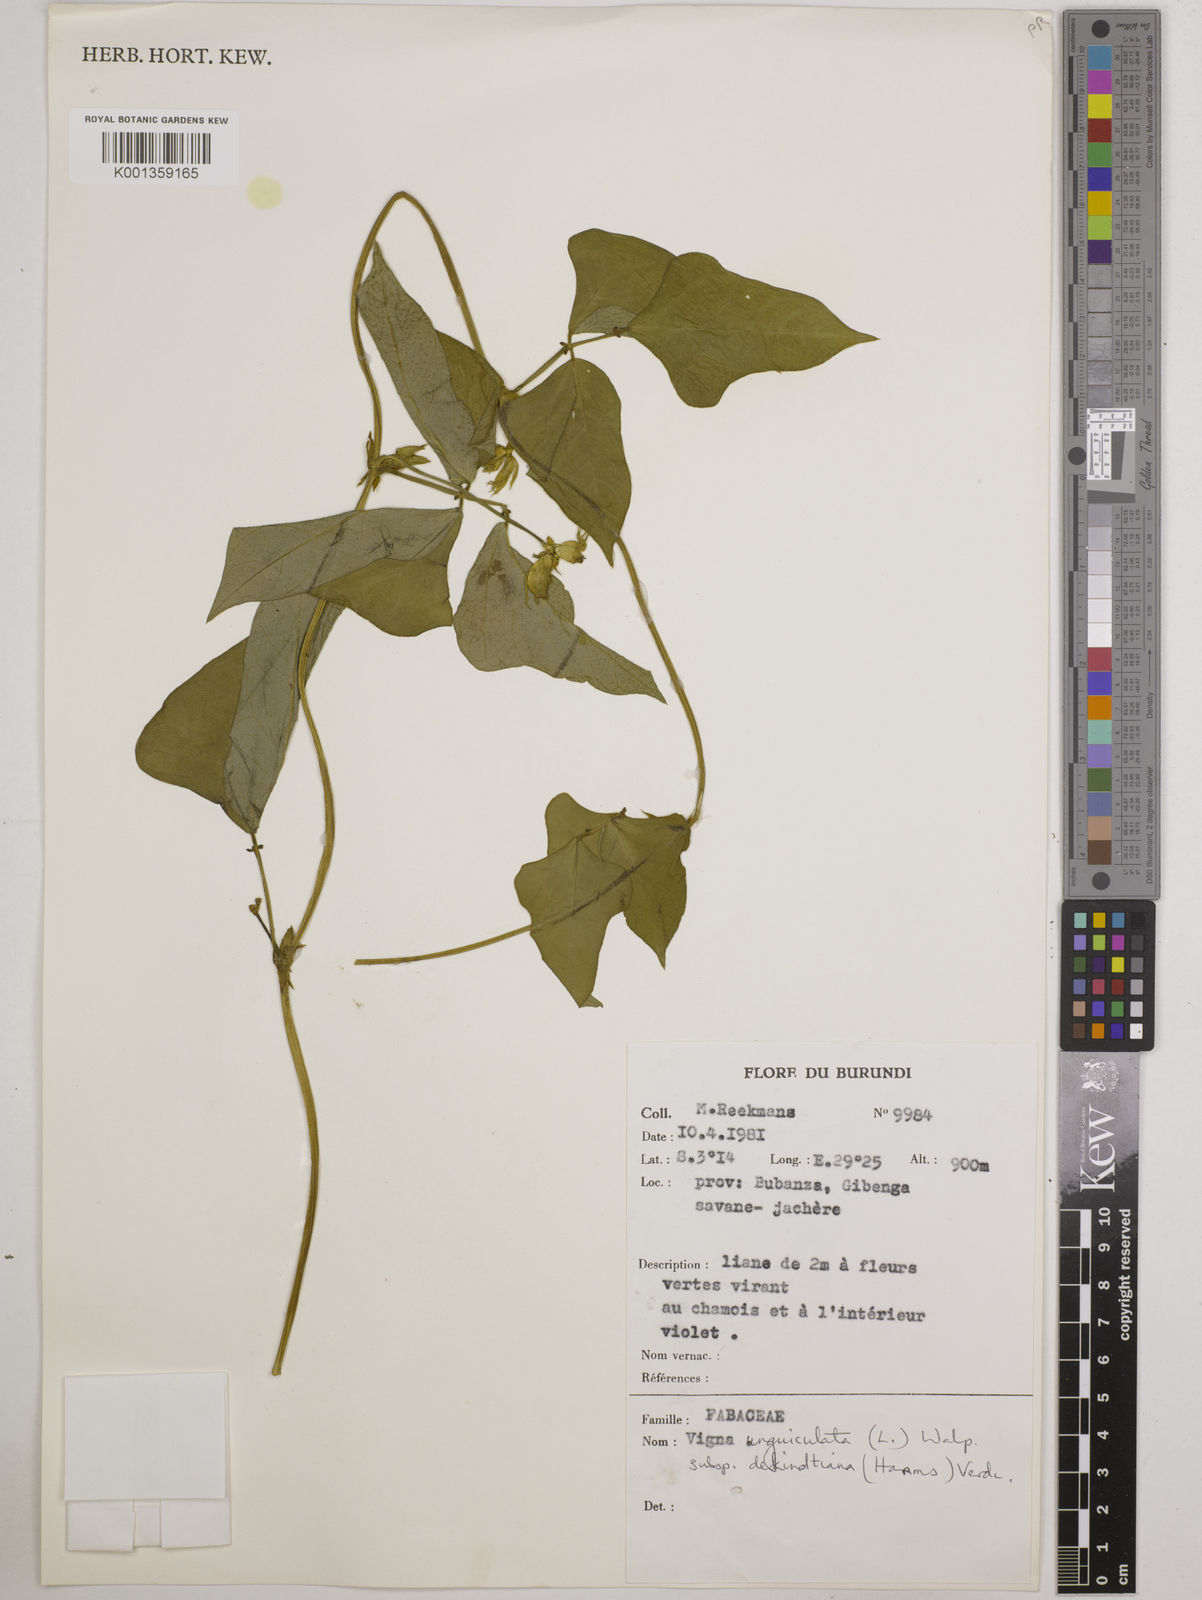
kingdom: Plantae
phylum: Tracheophyta
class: Magnoliopsida
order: Fabales
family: Fabaceae
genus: Vigna
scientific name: Vigna
